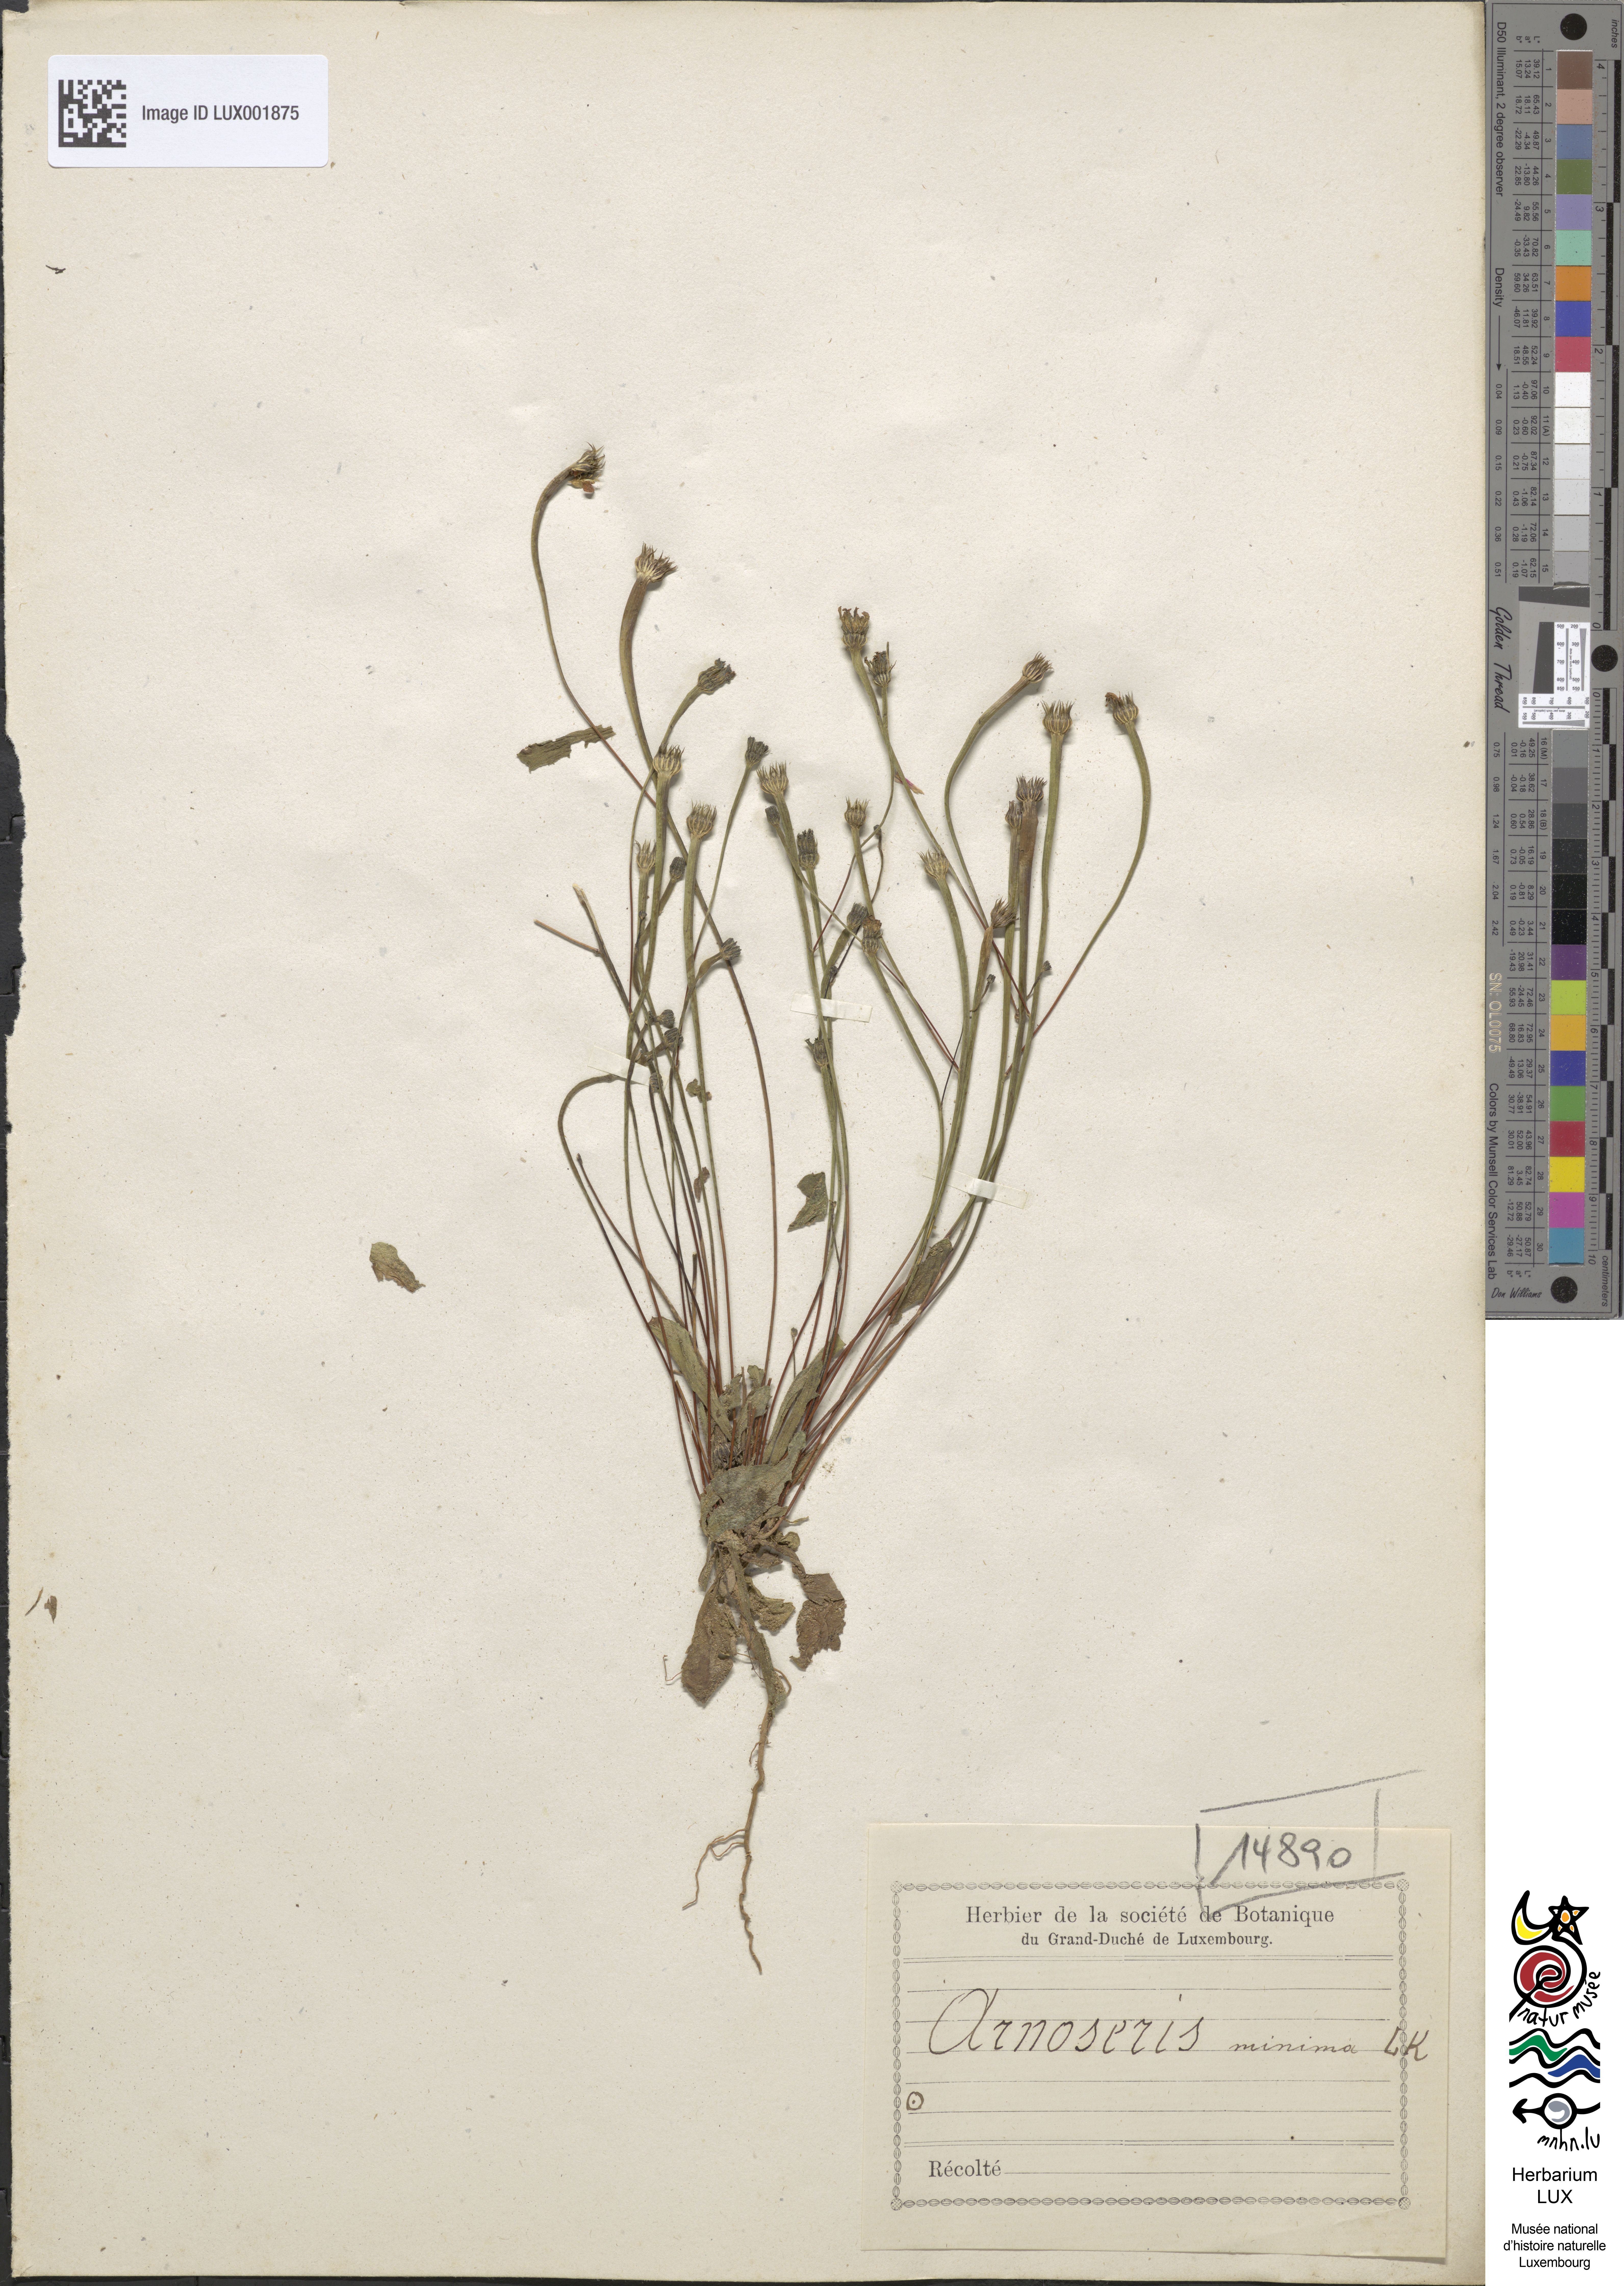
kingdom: Plantae
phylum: Tracheophyta
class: Magnoliopsida
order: Asterales
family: Asteraceae
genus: Arnoseris
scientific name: Arnoseris minima
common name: Lamb's succory
